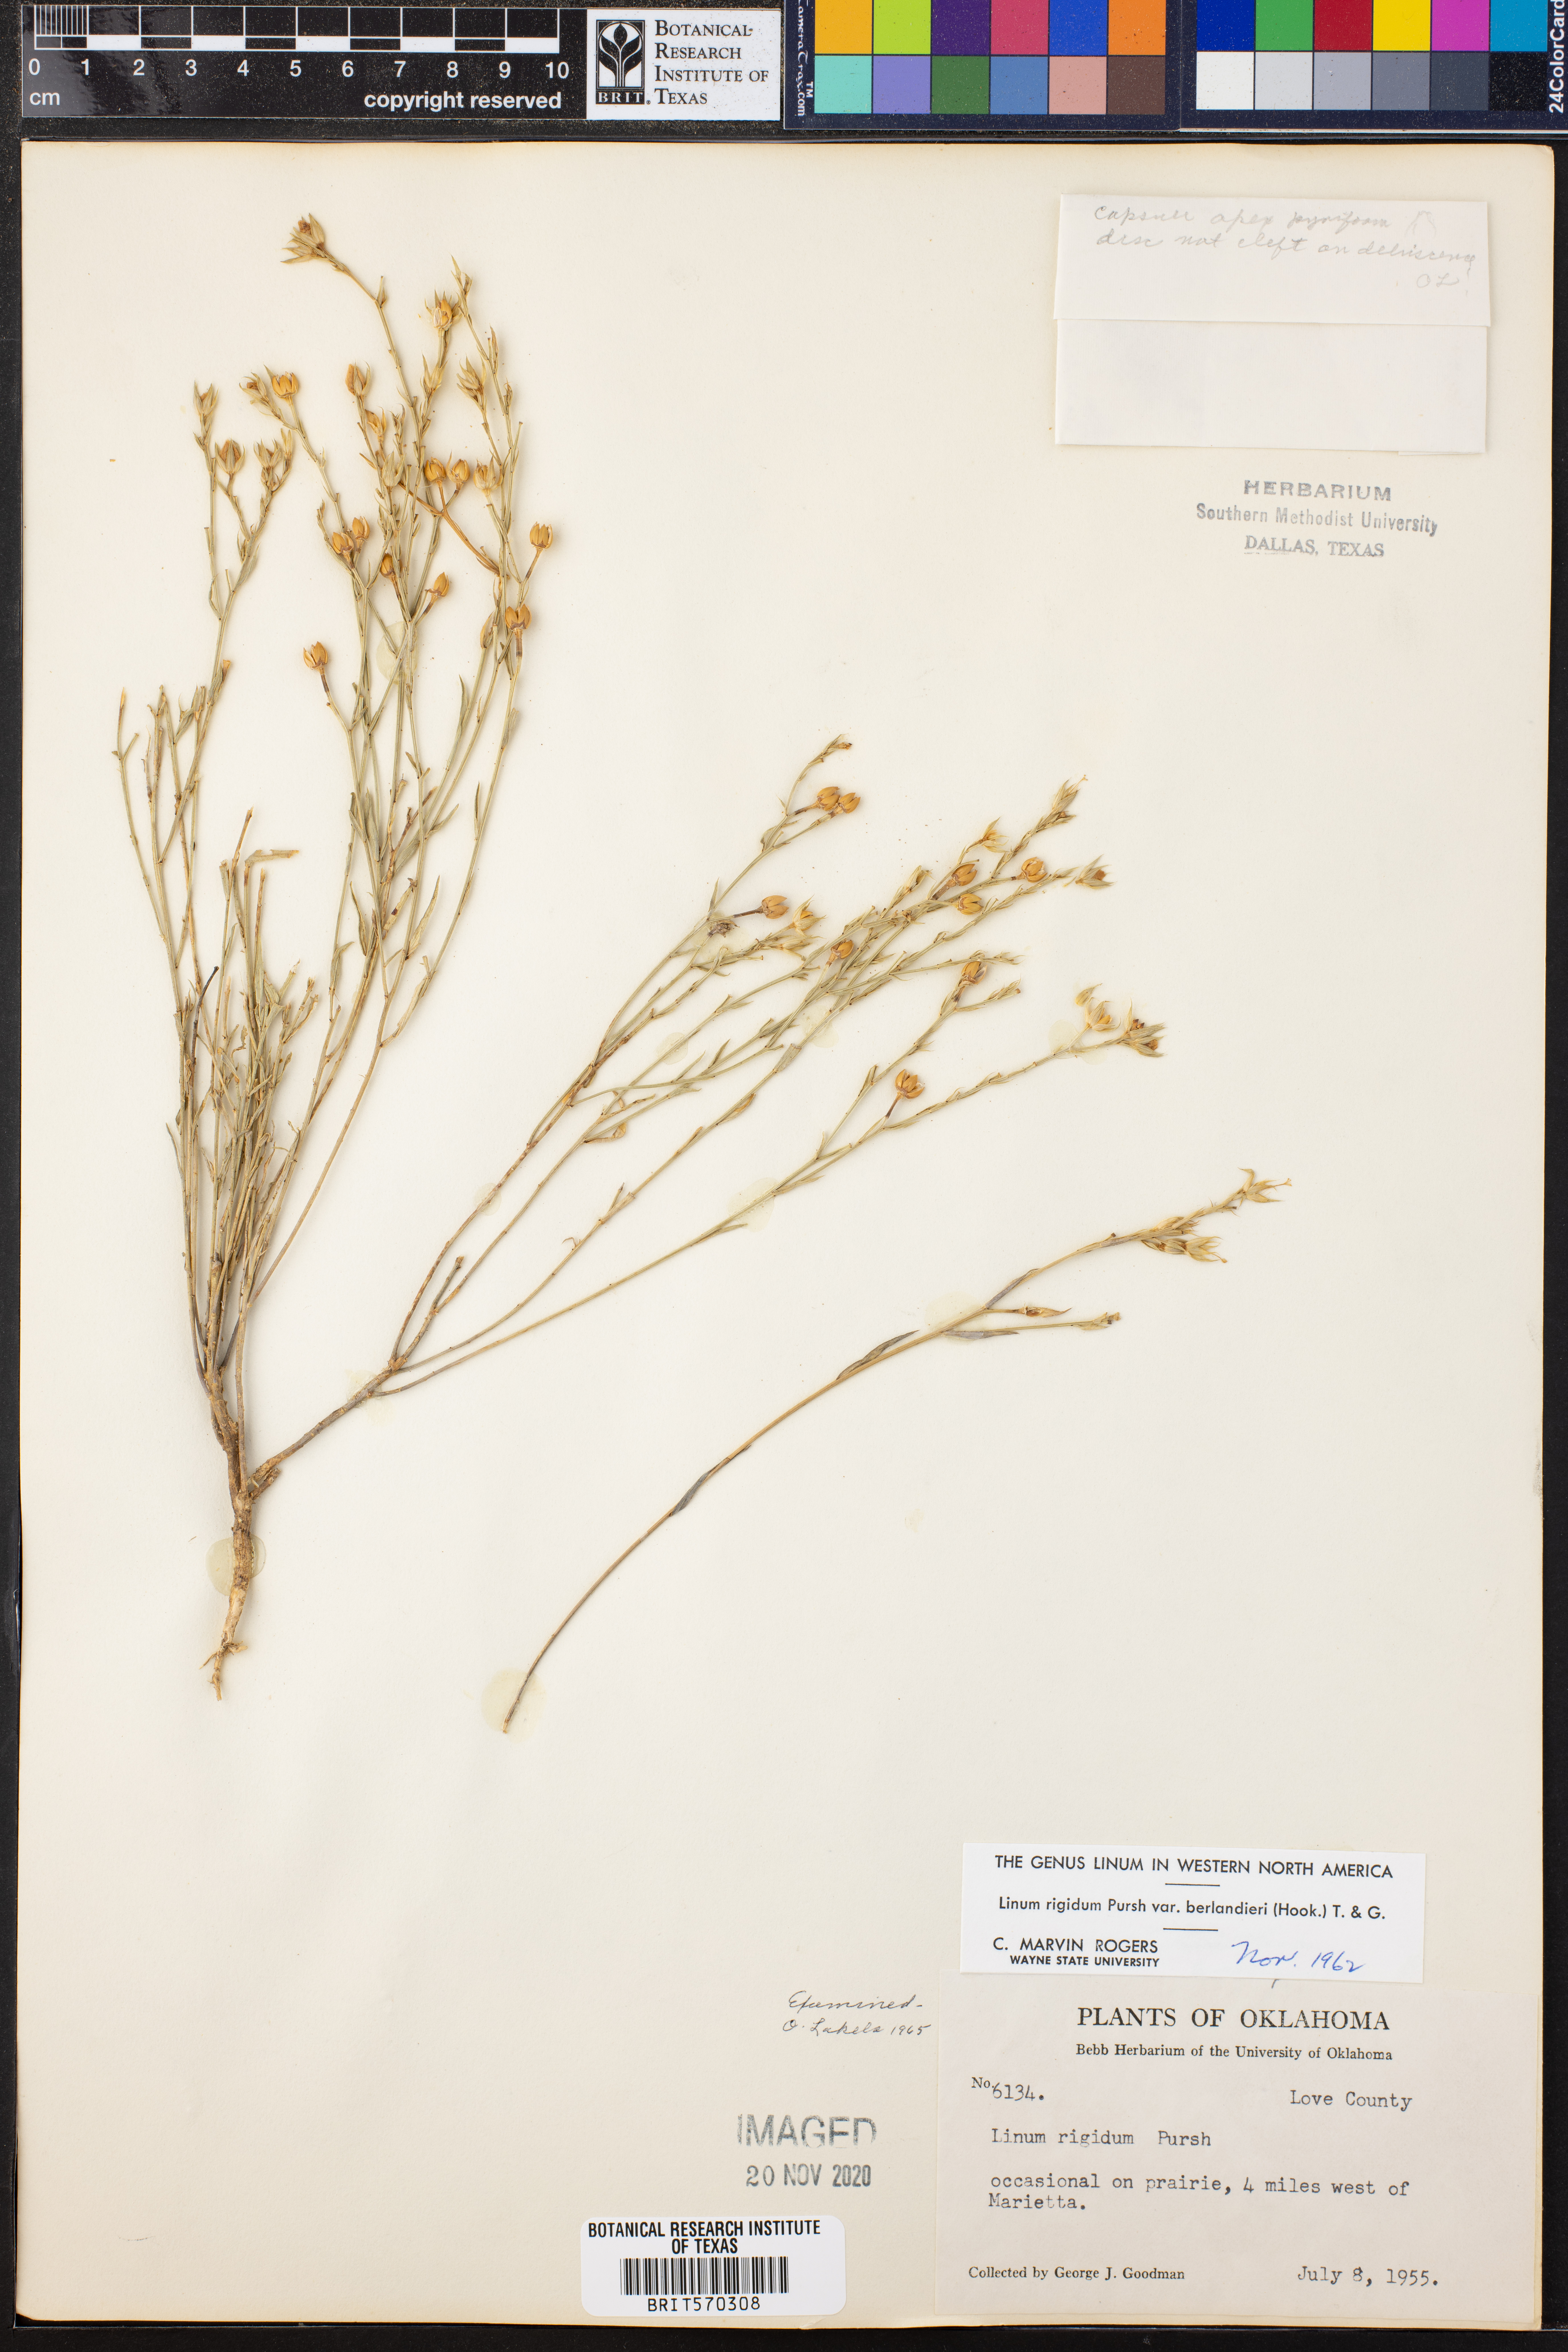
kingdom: Plantae
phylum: Tracheophyta
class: Magnoliopsida
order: Malpighiales
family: Linaceae
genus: Linum
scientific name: Linum berlandieri
